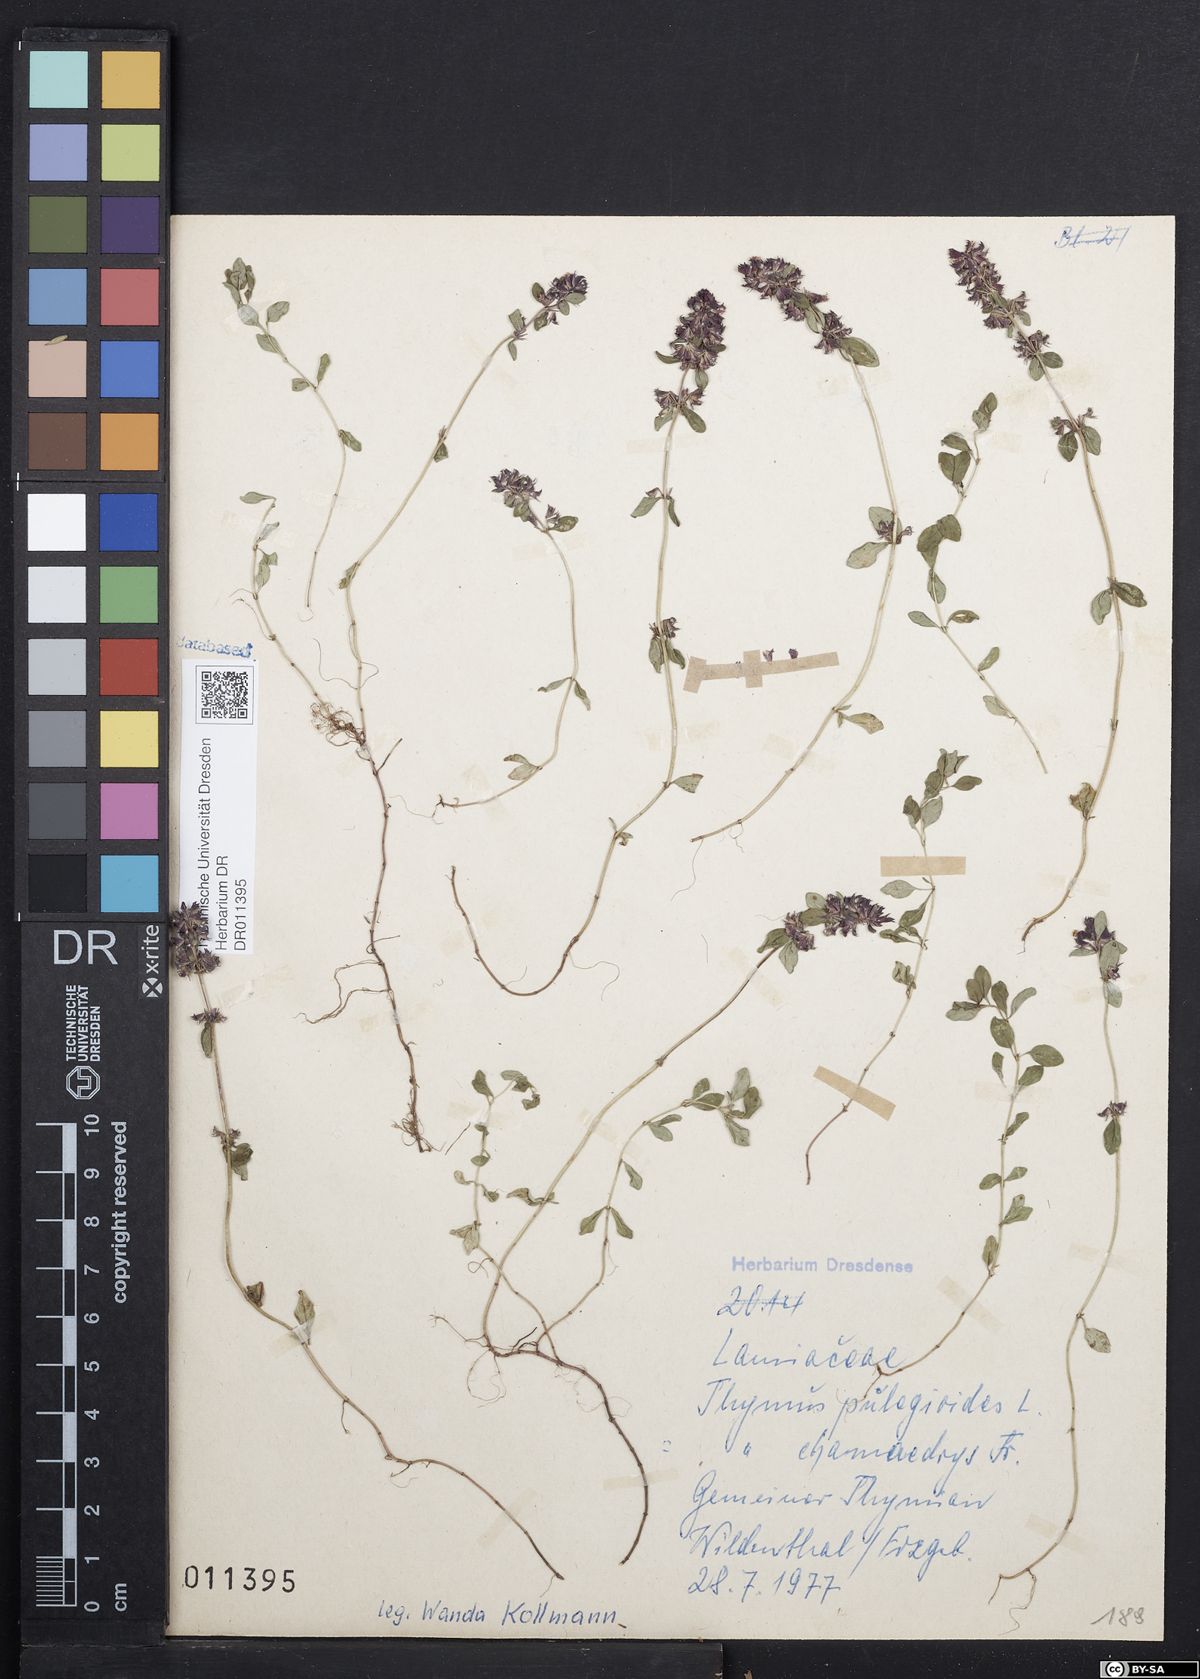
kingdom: Plantae
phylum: Tracheophyta
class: Magnoliopsida
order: Lamiales
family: Lamiaceae
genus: Thymus
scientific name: Thymus pulegioides
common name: Large thyme
